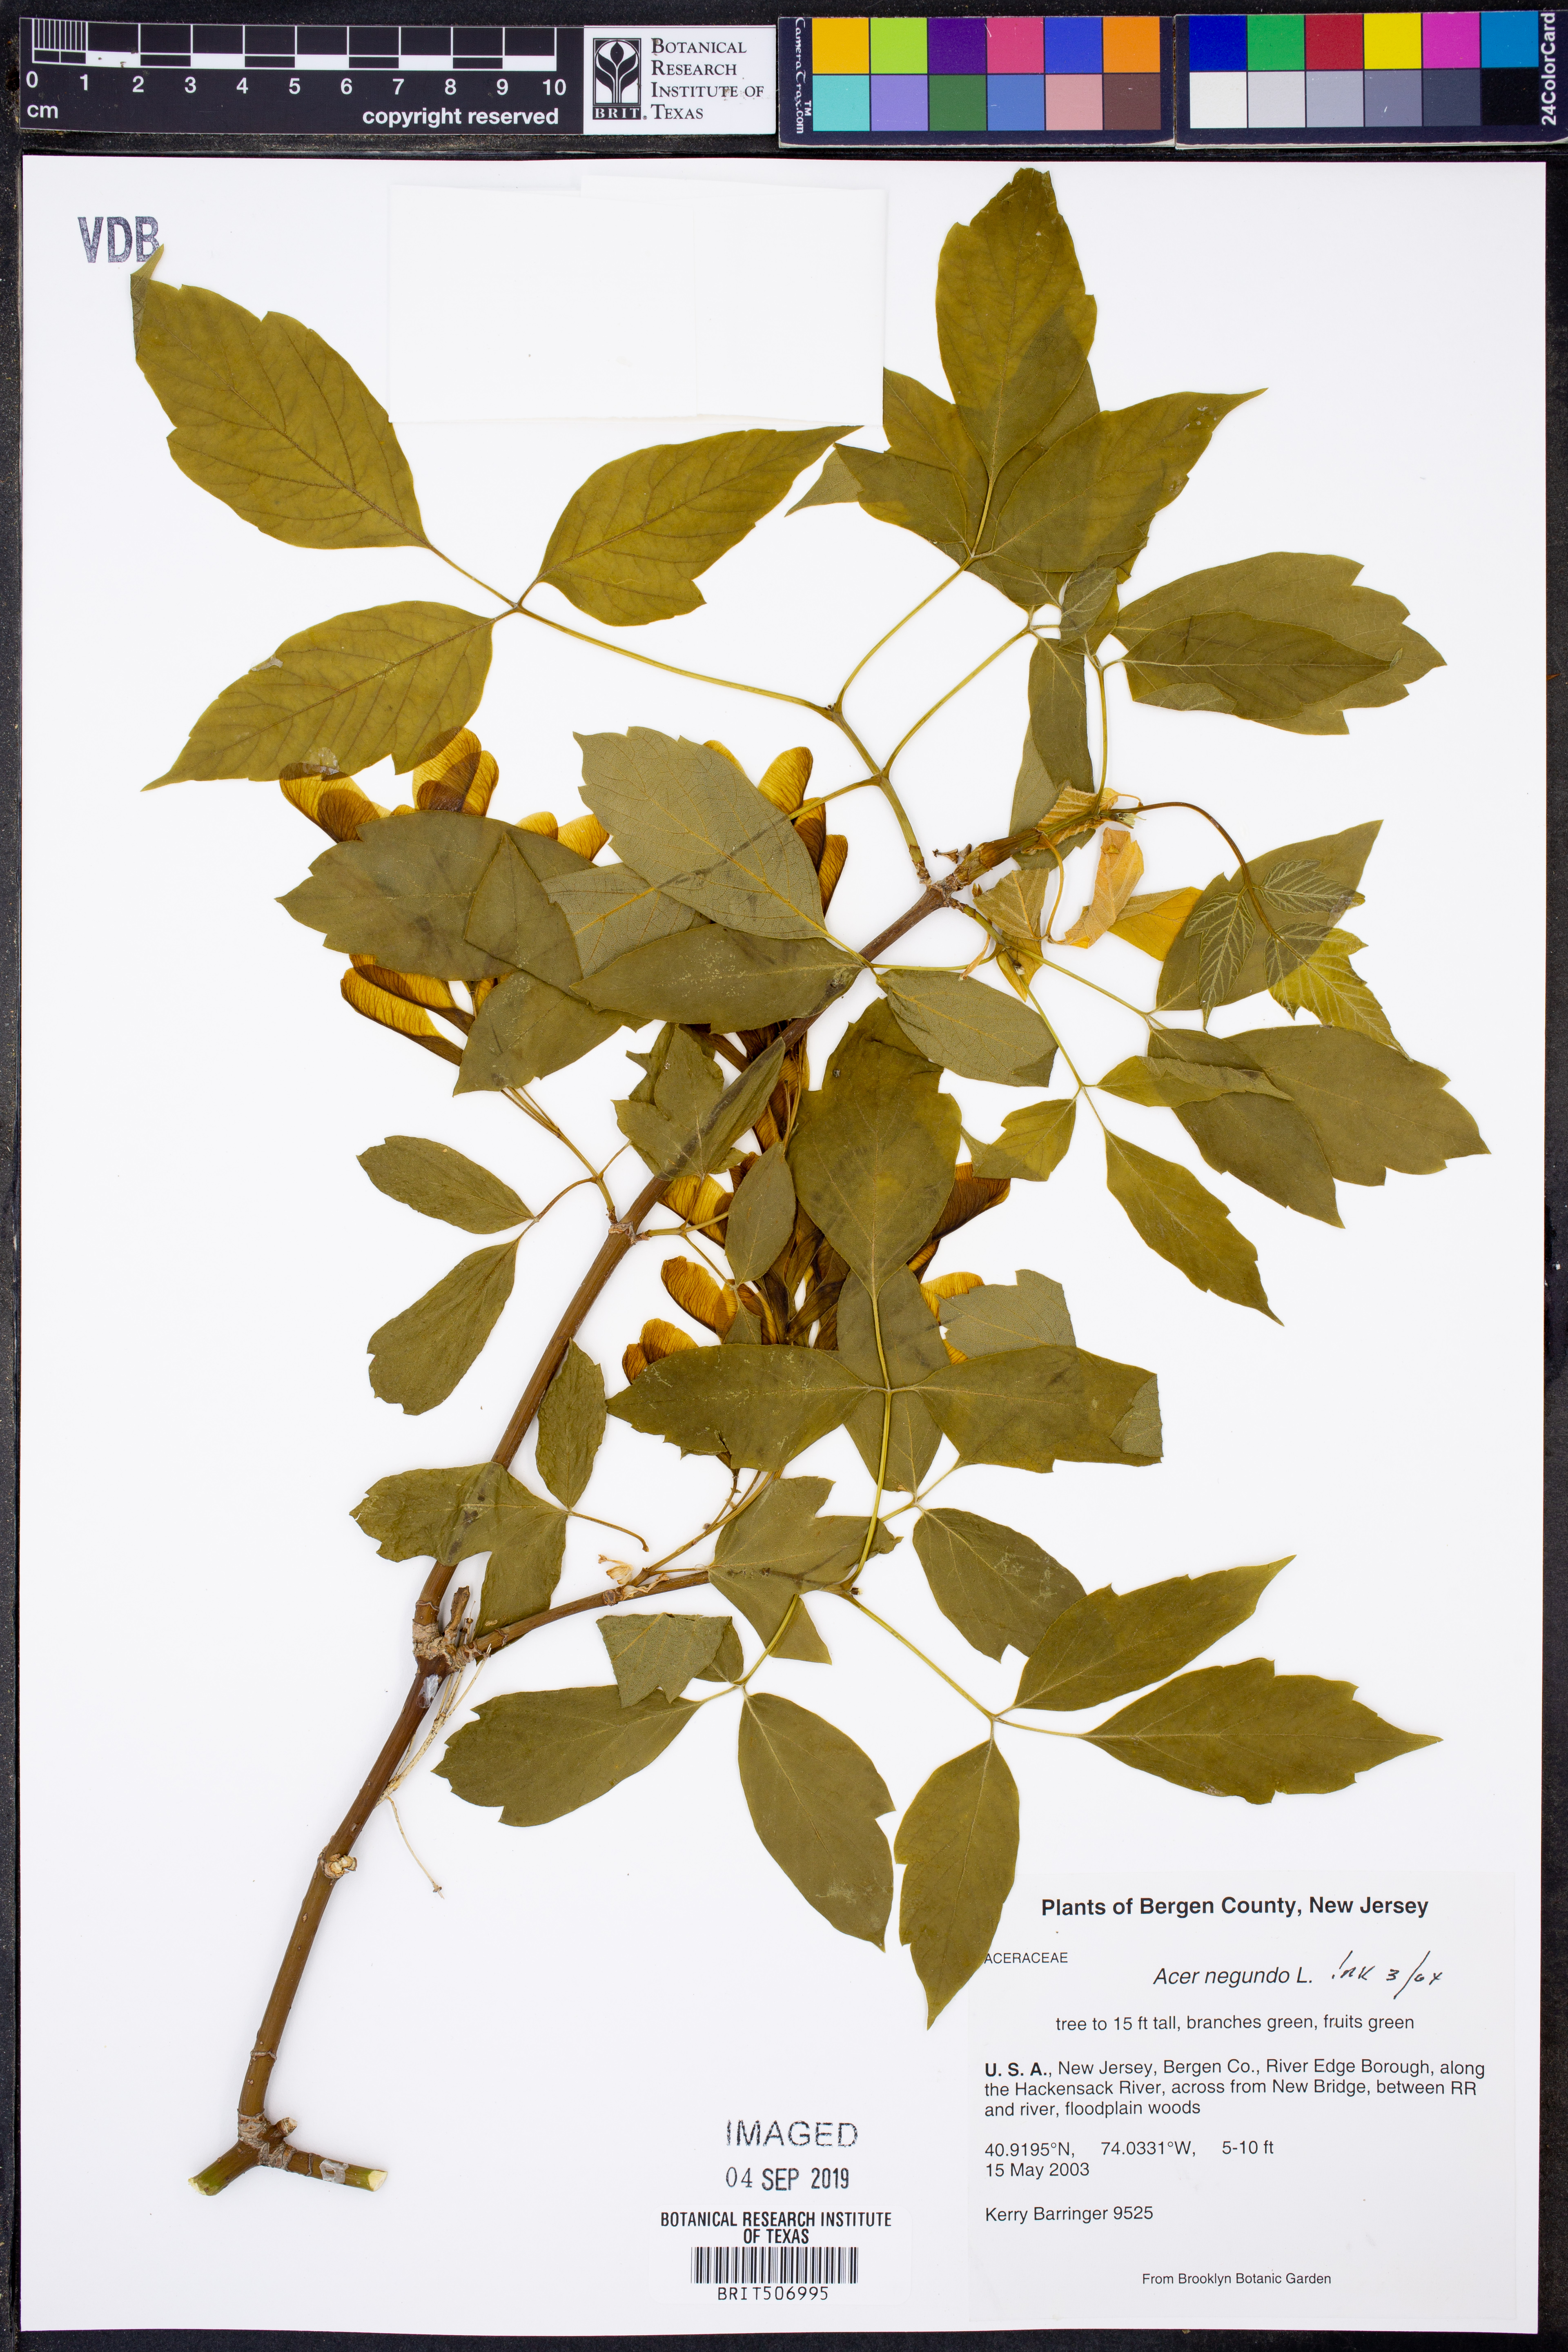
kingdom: Plantae
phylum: Tracheophyta
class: Magnoliopsida
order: Sapindales
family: Sapindaceae
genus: Acer
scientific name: Acer negundo
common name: Ashleaf maple
